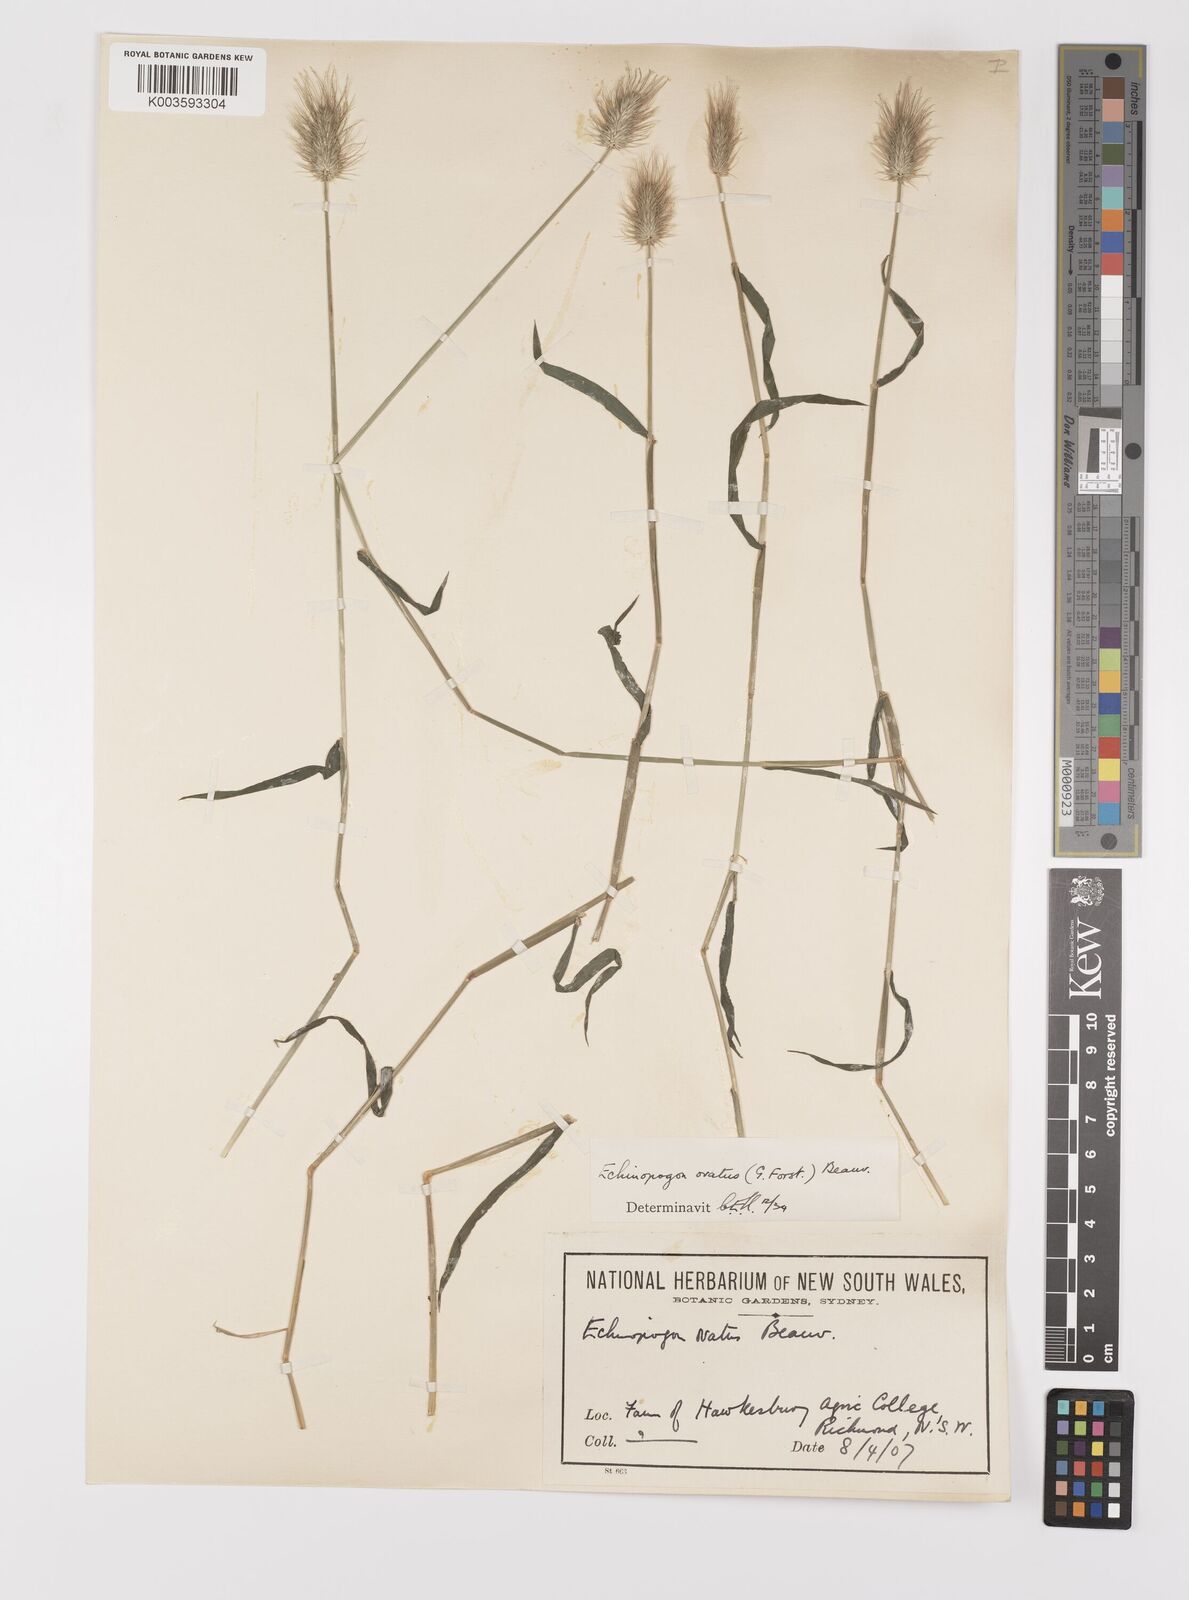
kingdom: Plantae
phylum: Tracheophyta
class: Liliopsida
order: Poales
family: Poaceae
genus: Echinopogon
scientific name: Echinopogon ovatus
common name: Hedgehog-grass
